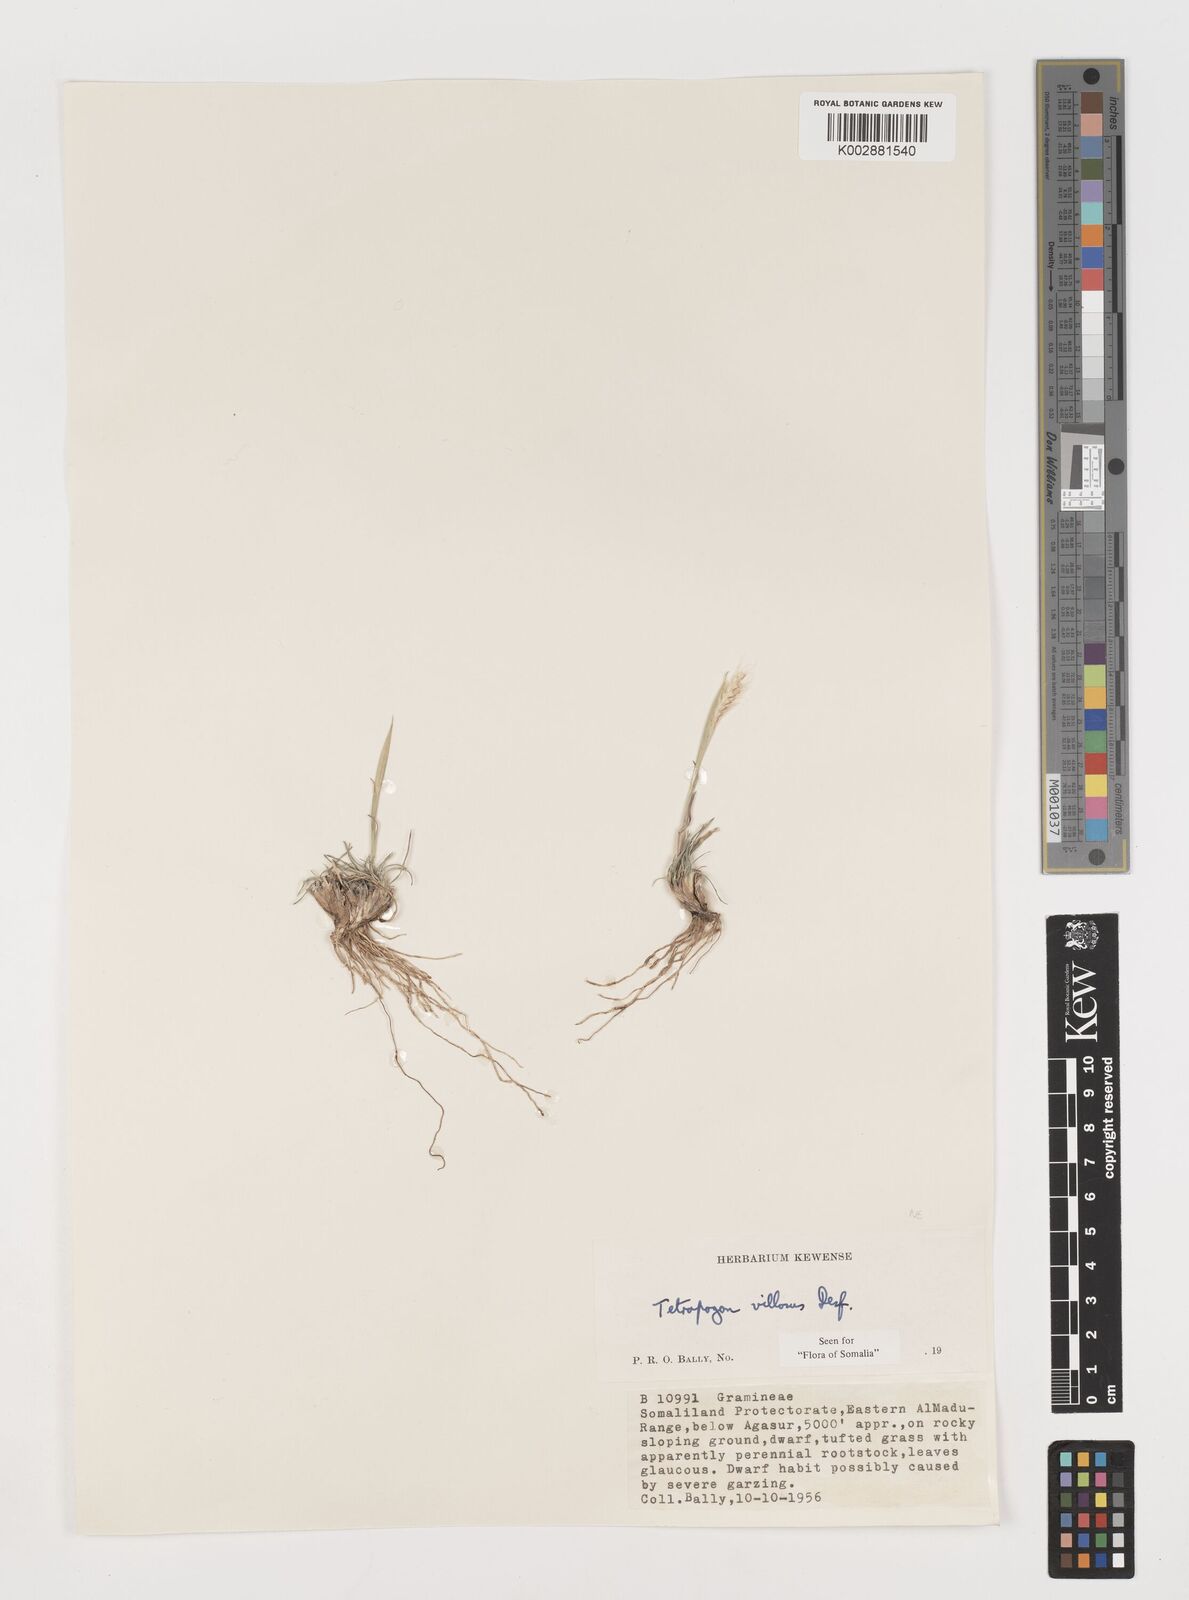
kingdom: Plantae
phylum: Tracheophyta
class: Liliopsida
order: Poales
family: Poaceae
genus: Tetrapogon
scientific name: Tetrapogon villosus
